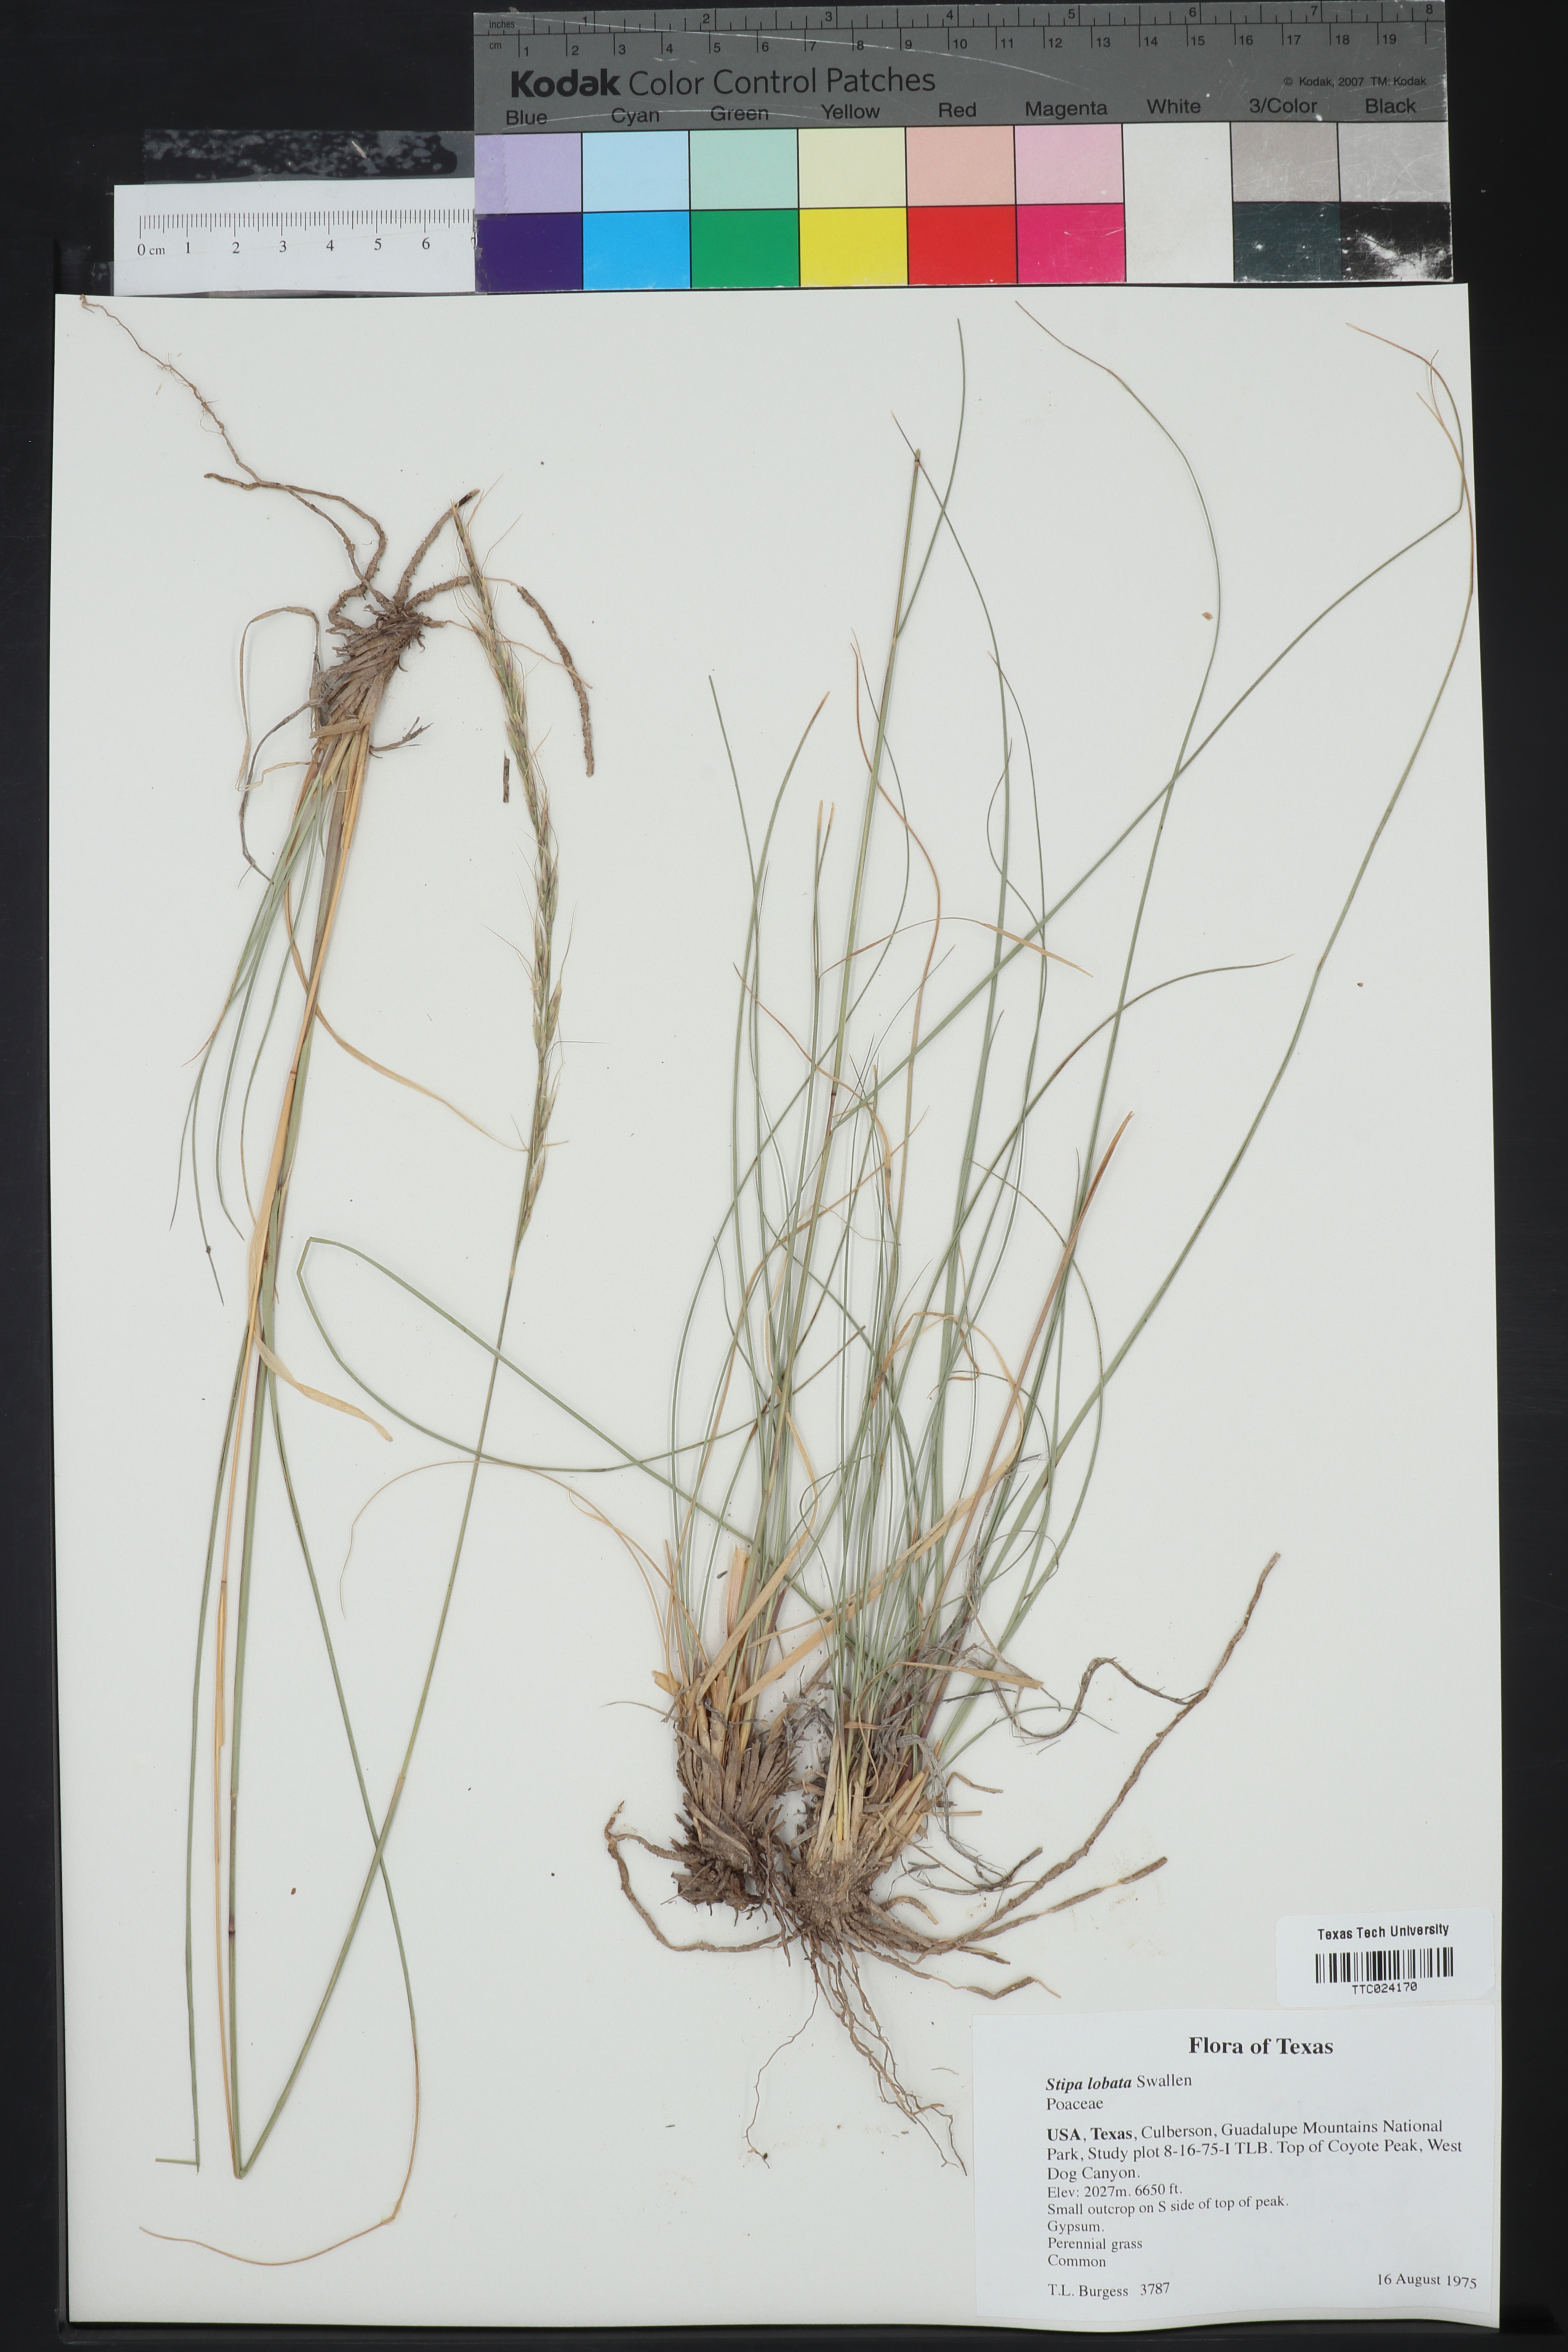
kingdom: Plantae
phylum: Tracheophyta
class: Liliopsida
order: Poales
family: Poaceae
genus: Eriocoma
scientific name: Eriocoma lobata
